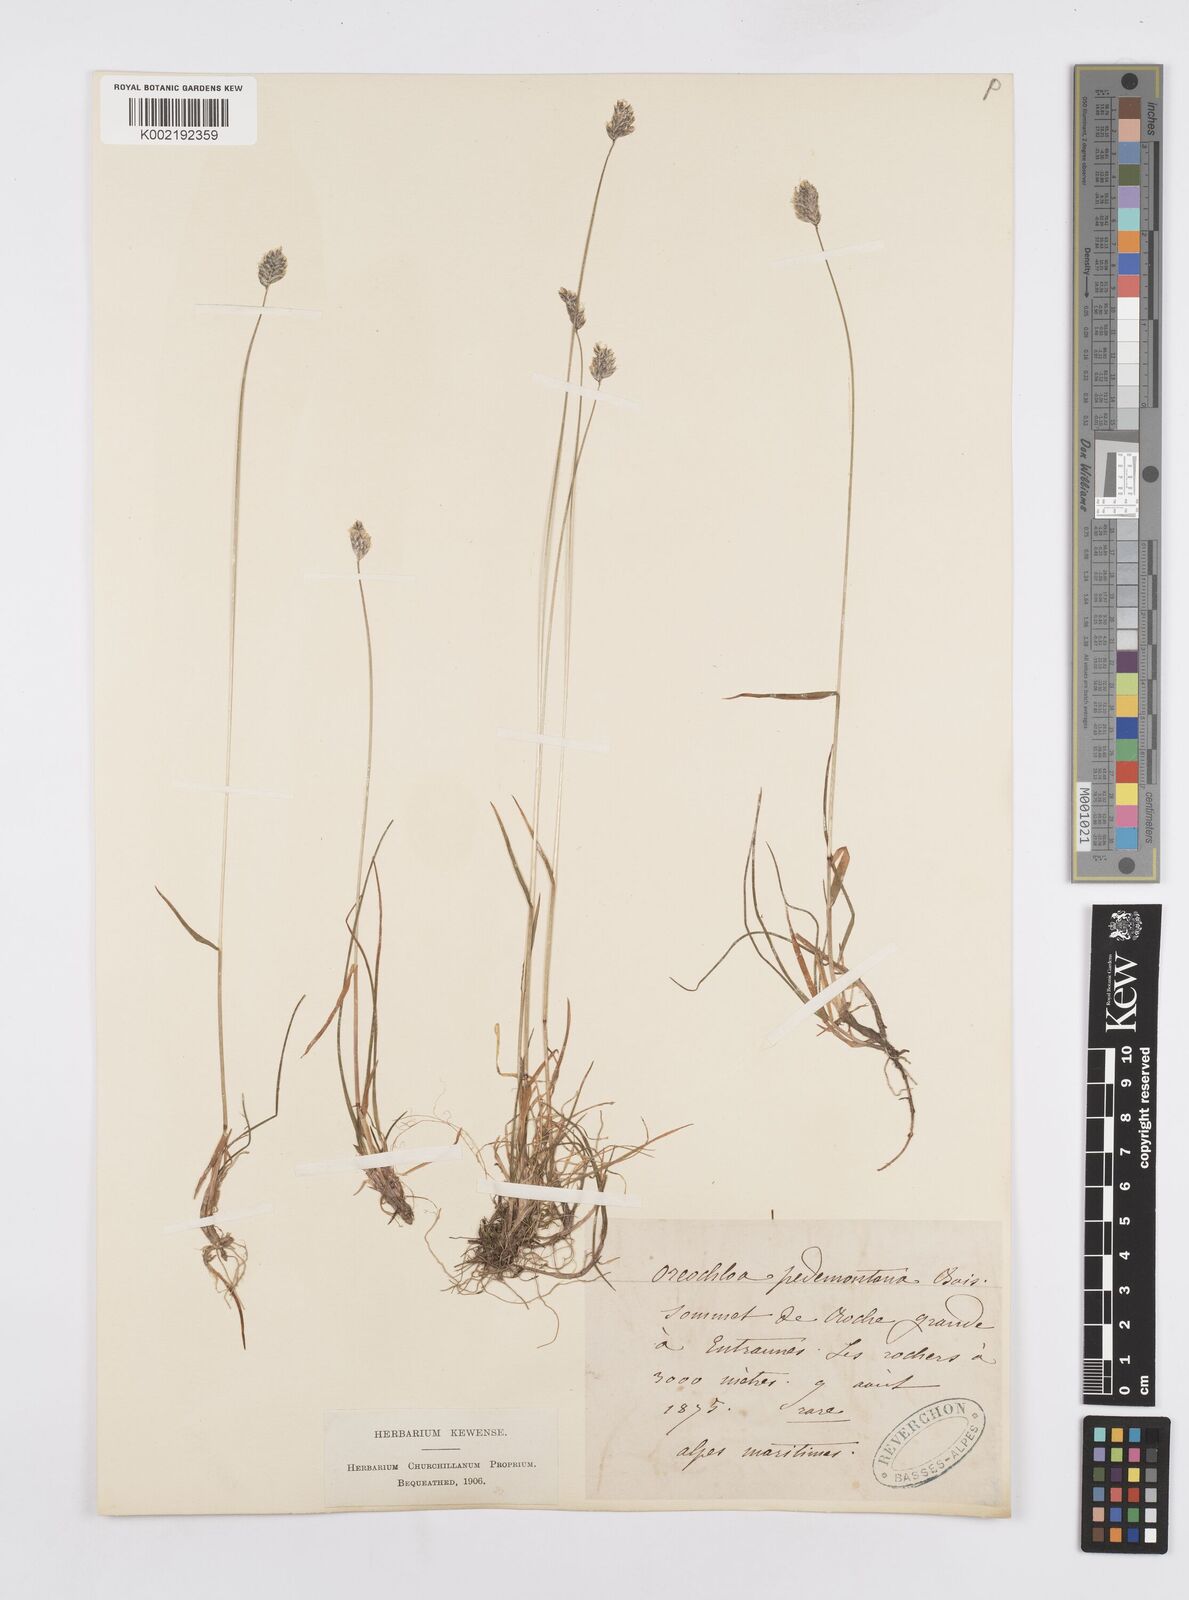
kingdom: Plantae
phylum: Tracheophyta
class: Liliopsida
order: Poales
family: Poaceae
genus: Oreochloa
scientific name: Oreochloa seslerioides
